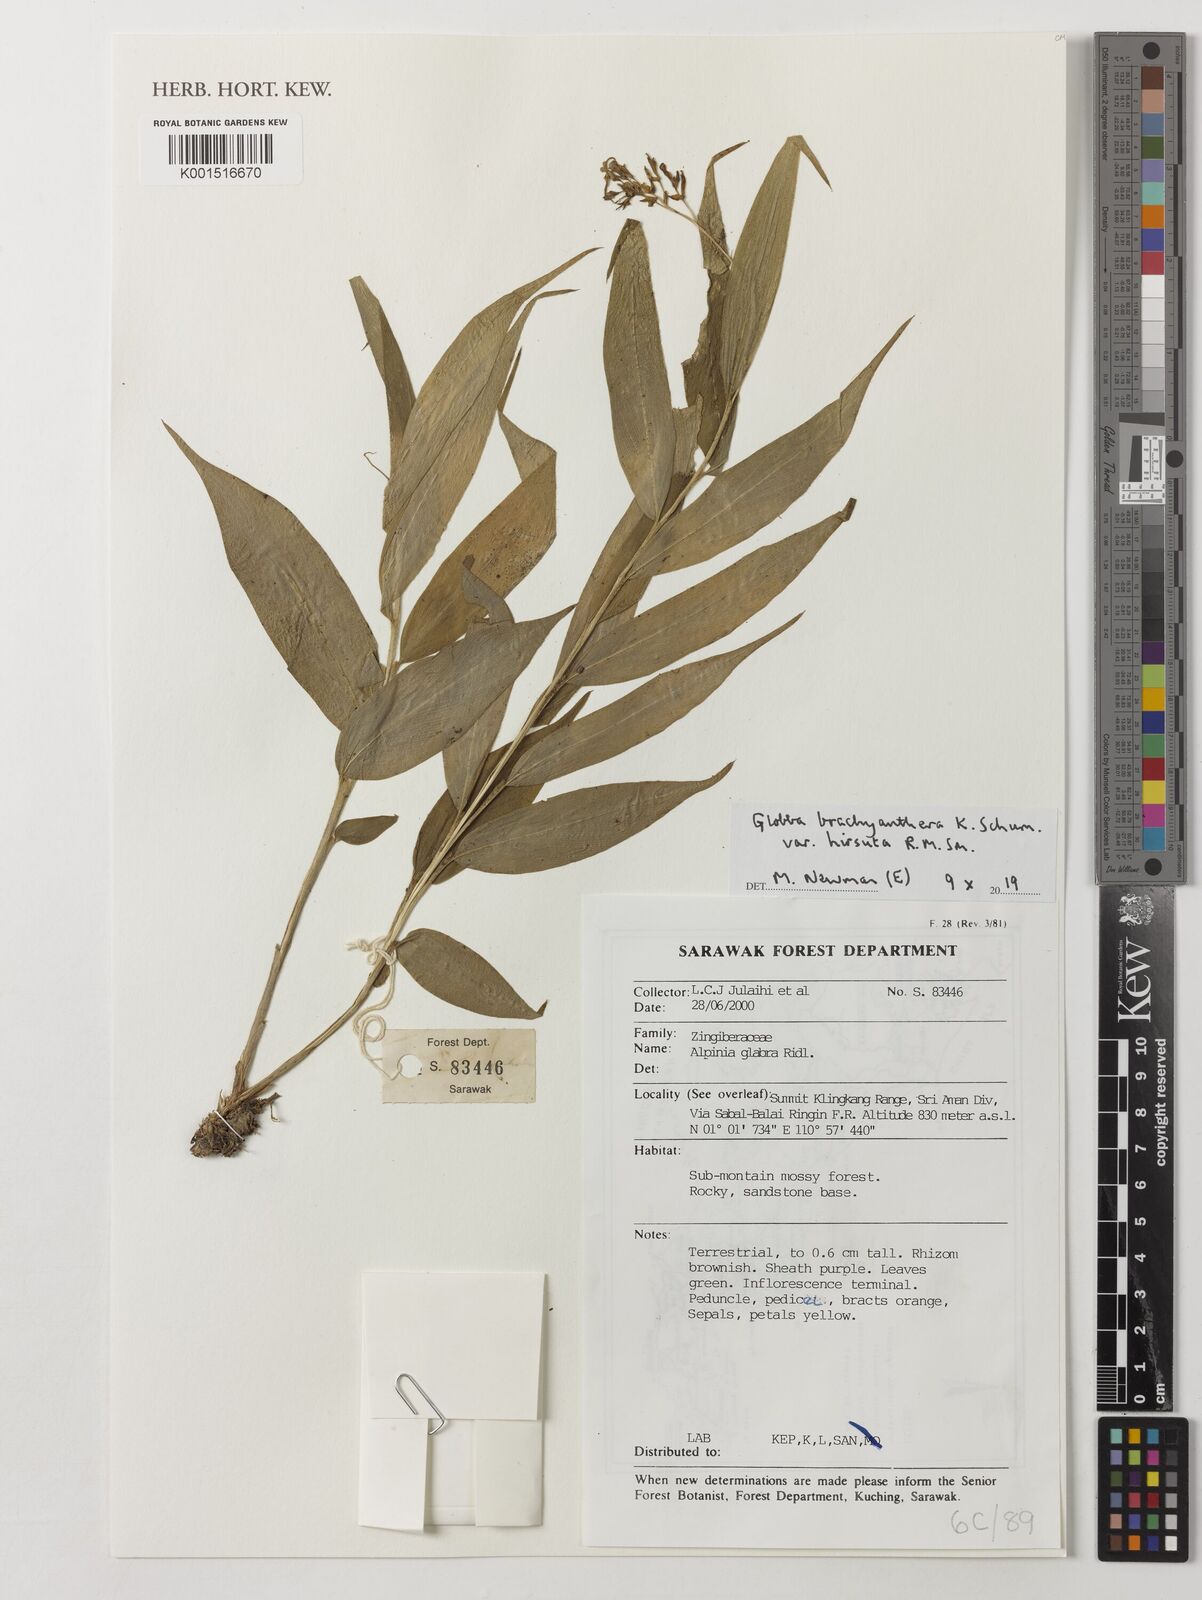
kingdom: Plantae
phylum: Tracheophyta
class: Liliopsida
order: Zingiberales
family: Zingiberaceae
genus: Globba
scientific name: Globba brachyanthera
